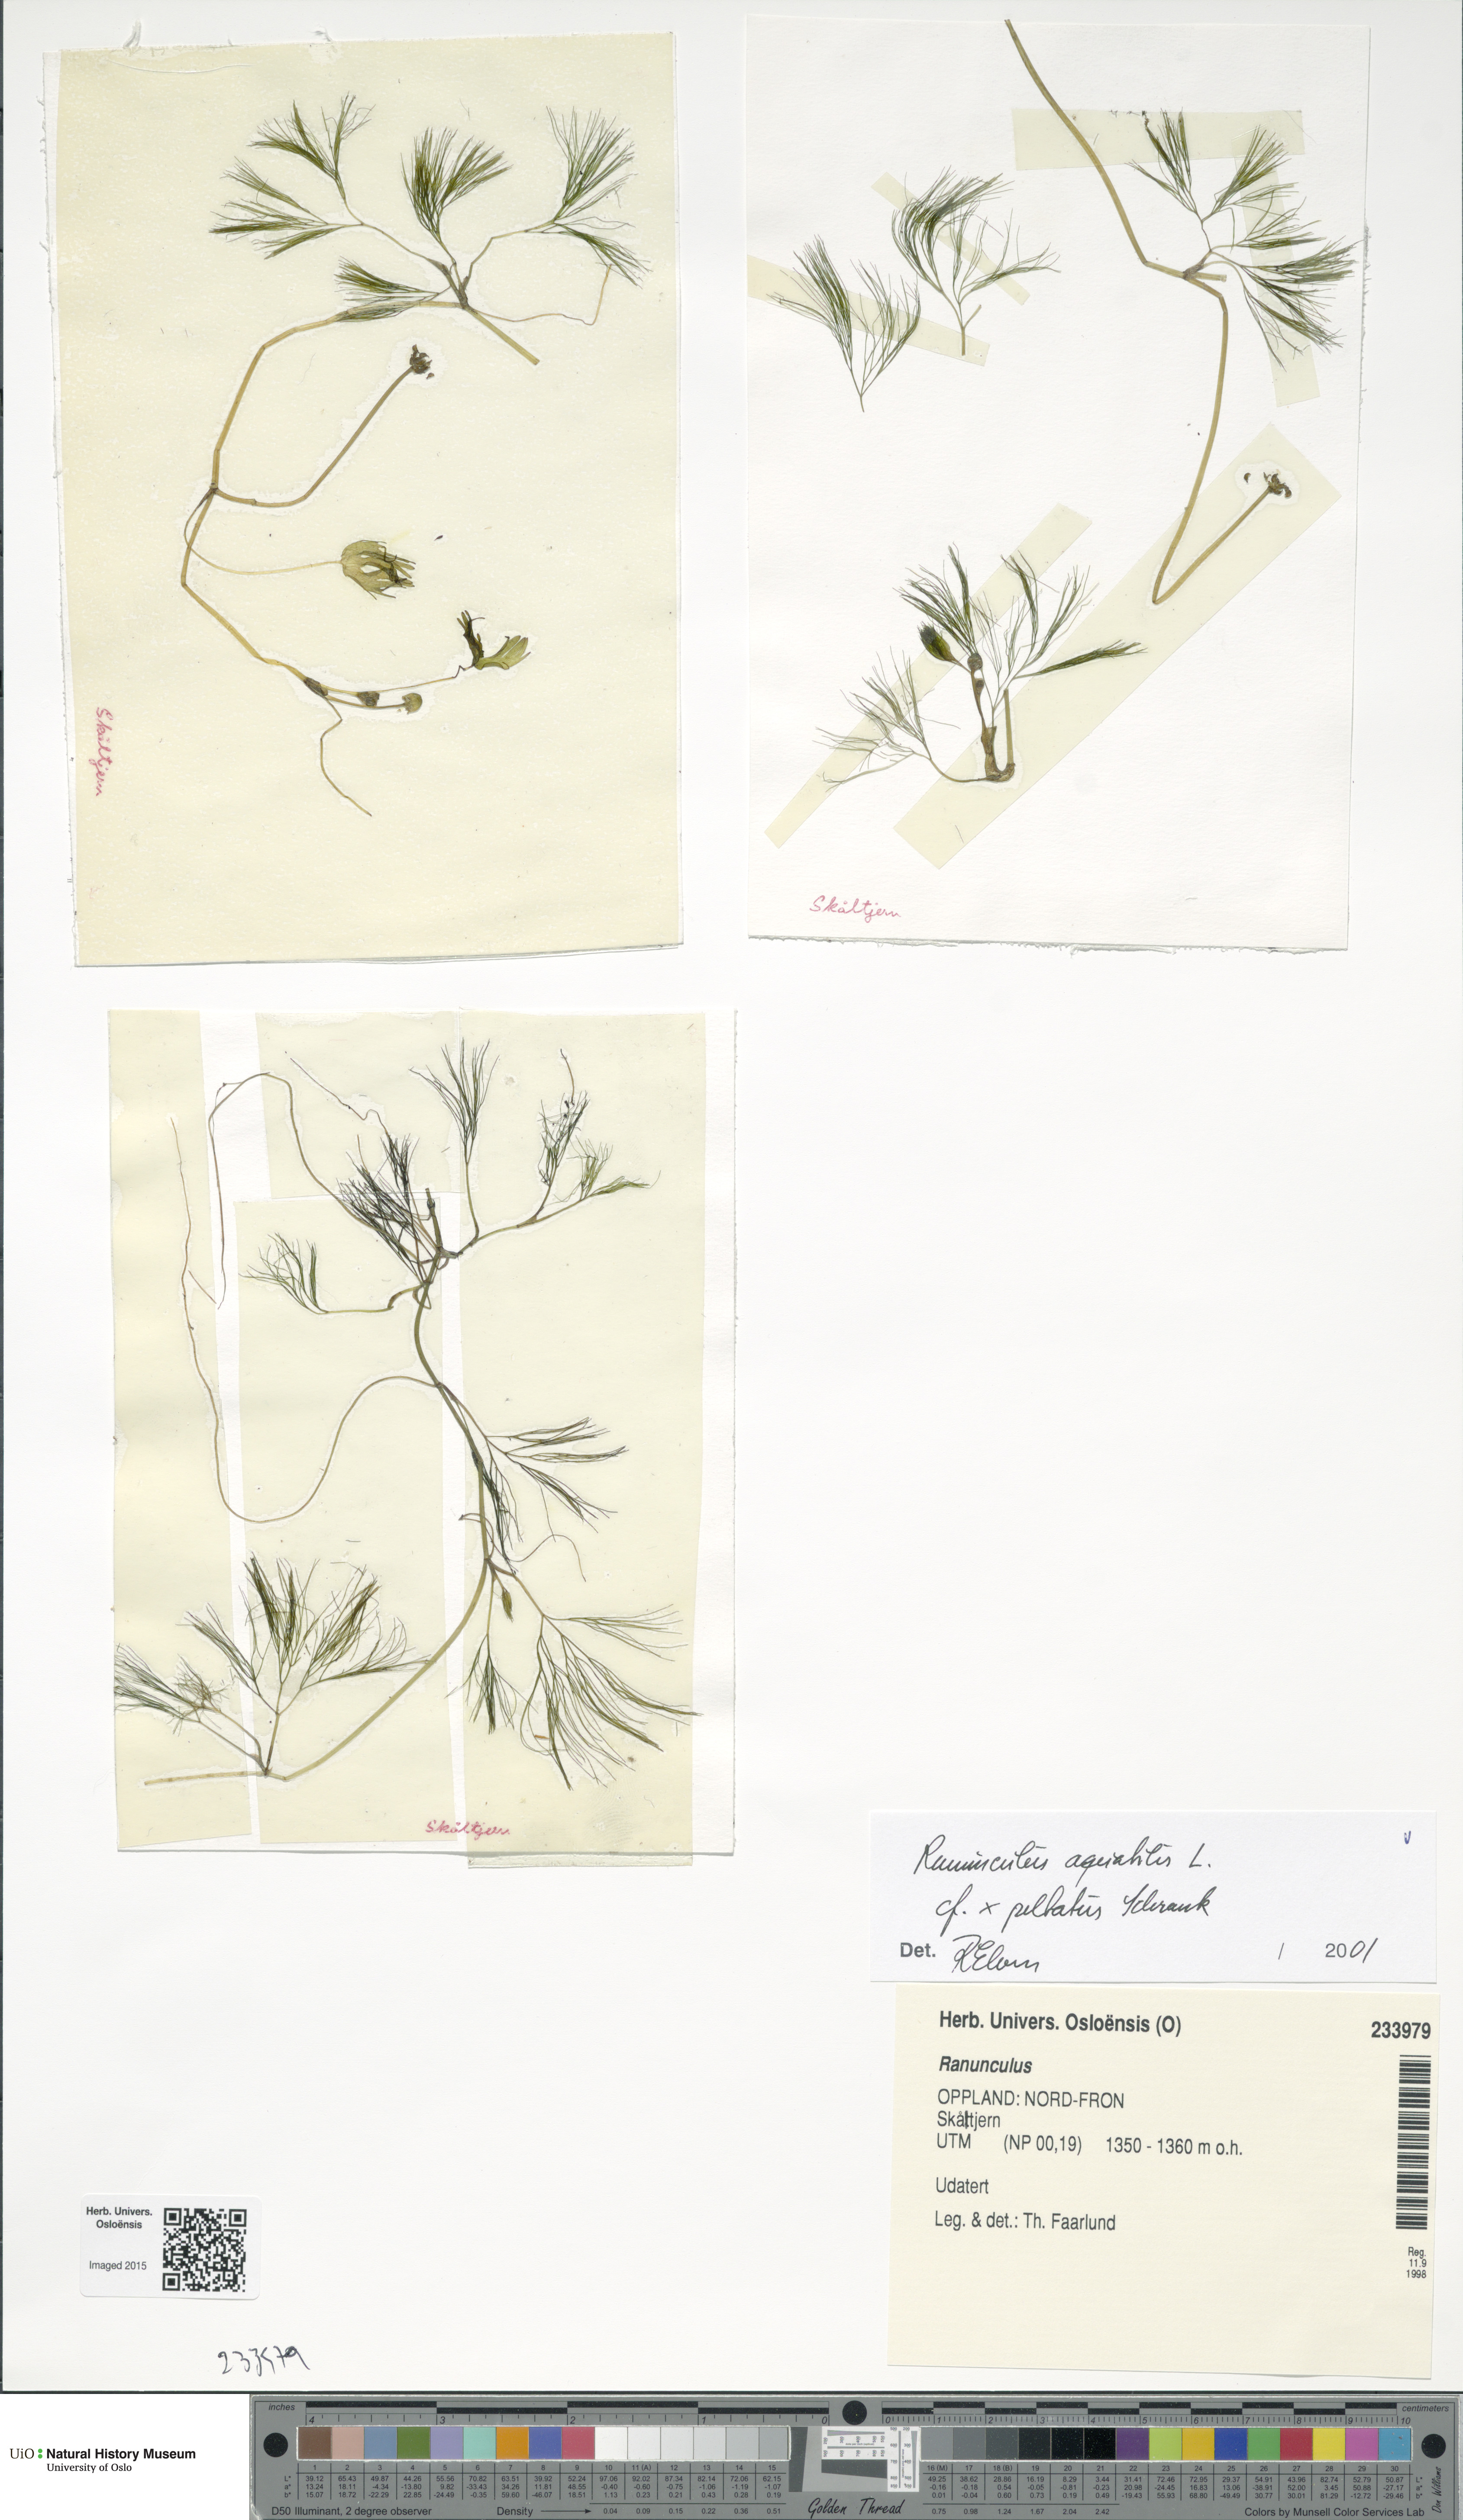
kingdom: Plantae
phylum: Tracheophyta
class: Magnoliopsida
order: Ranunculales
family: Ranunculaceae
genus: Ranunculus
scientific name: Ranunculus
